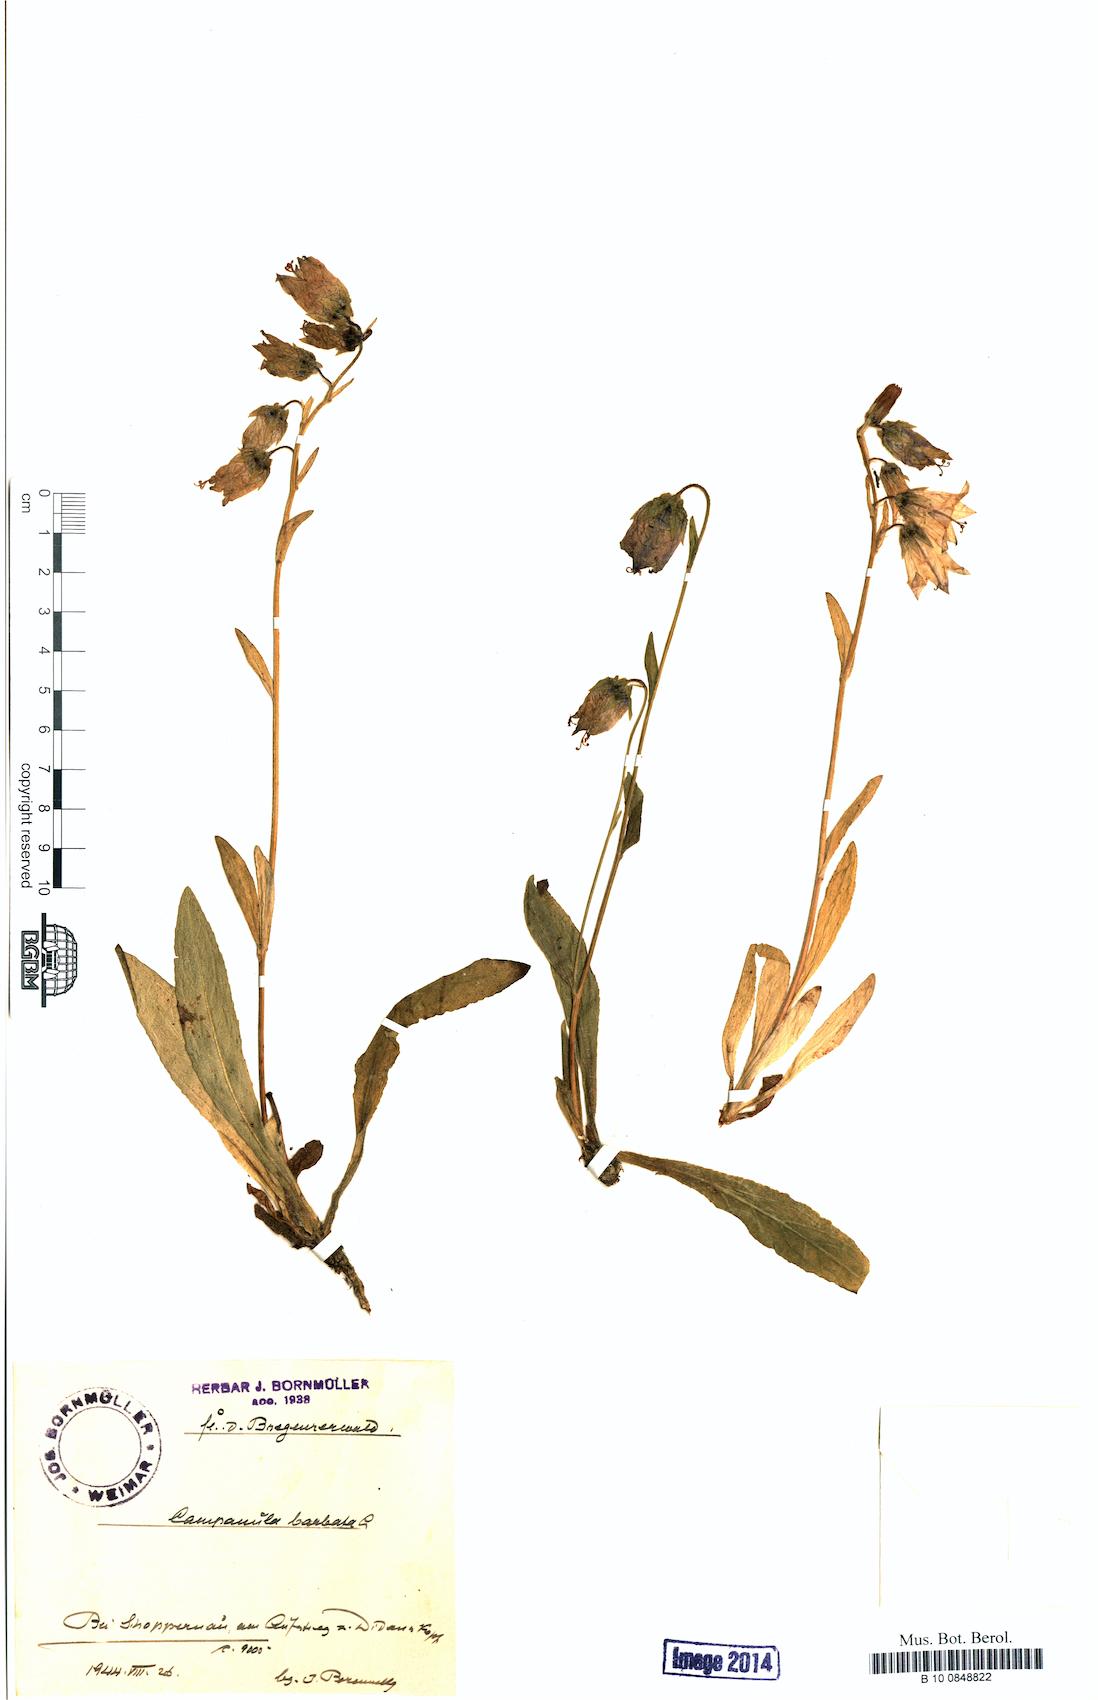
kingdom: Plantae
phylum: Tracheophyta
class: Magnoliopsida
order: Asterales
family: Campanulaceae
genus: Campanula
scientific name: Campanula barbata
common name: Bearded bellflower
